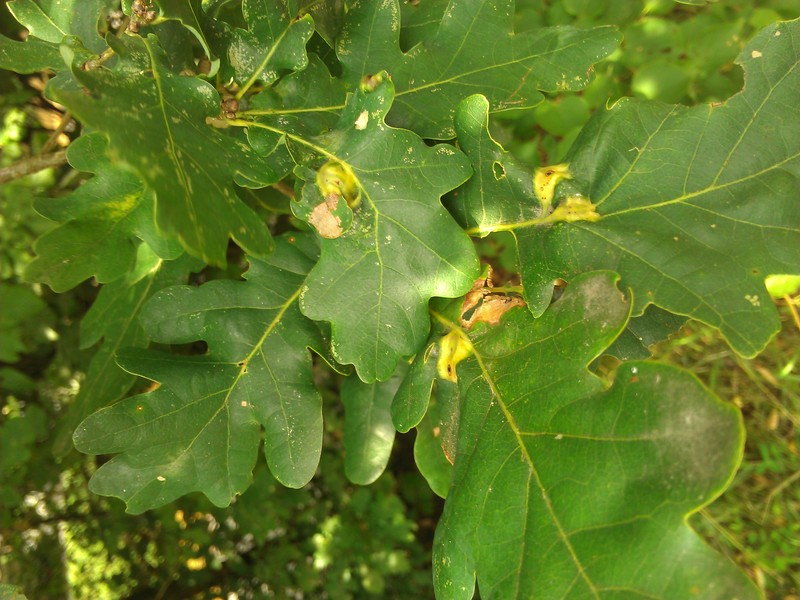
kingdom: Animalia
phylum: Arthropoda
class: Insecta
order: Hymenoptera
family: Cynipidae
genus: Andricus
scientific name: Andricus curvator
